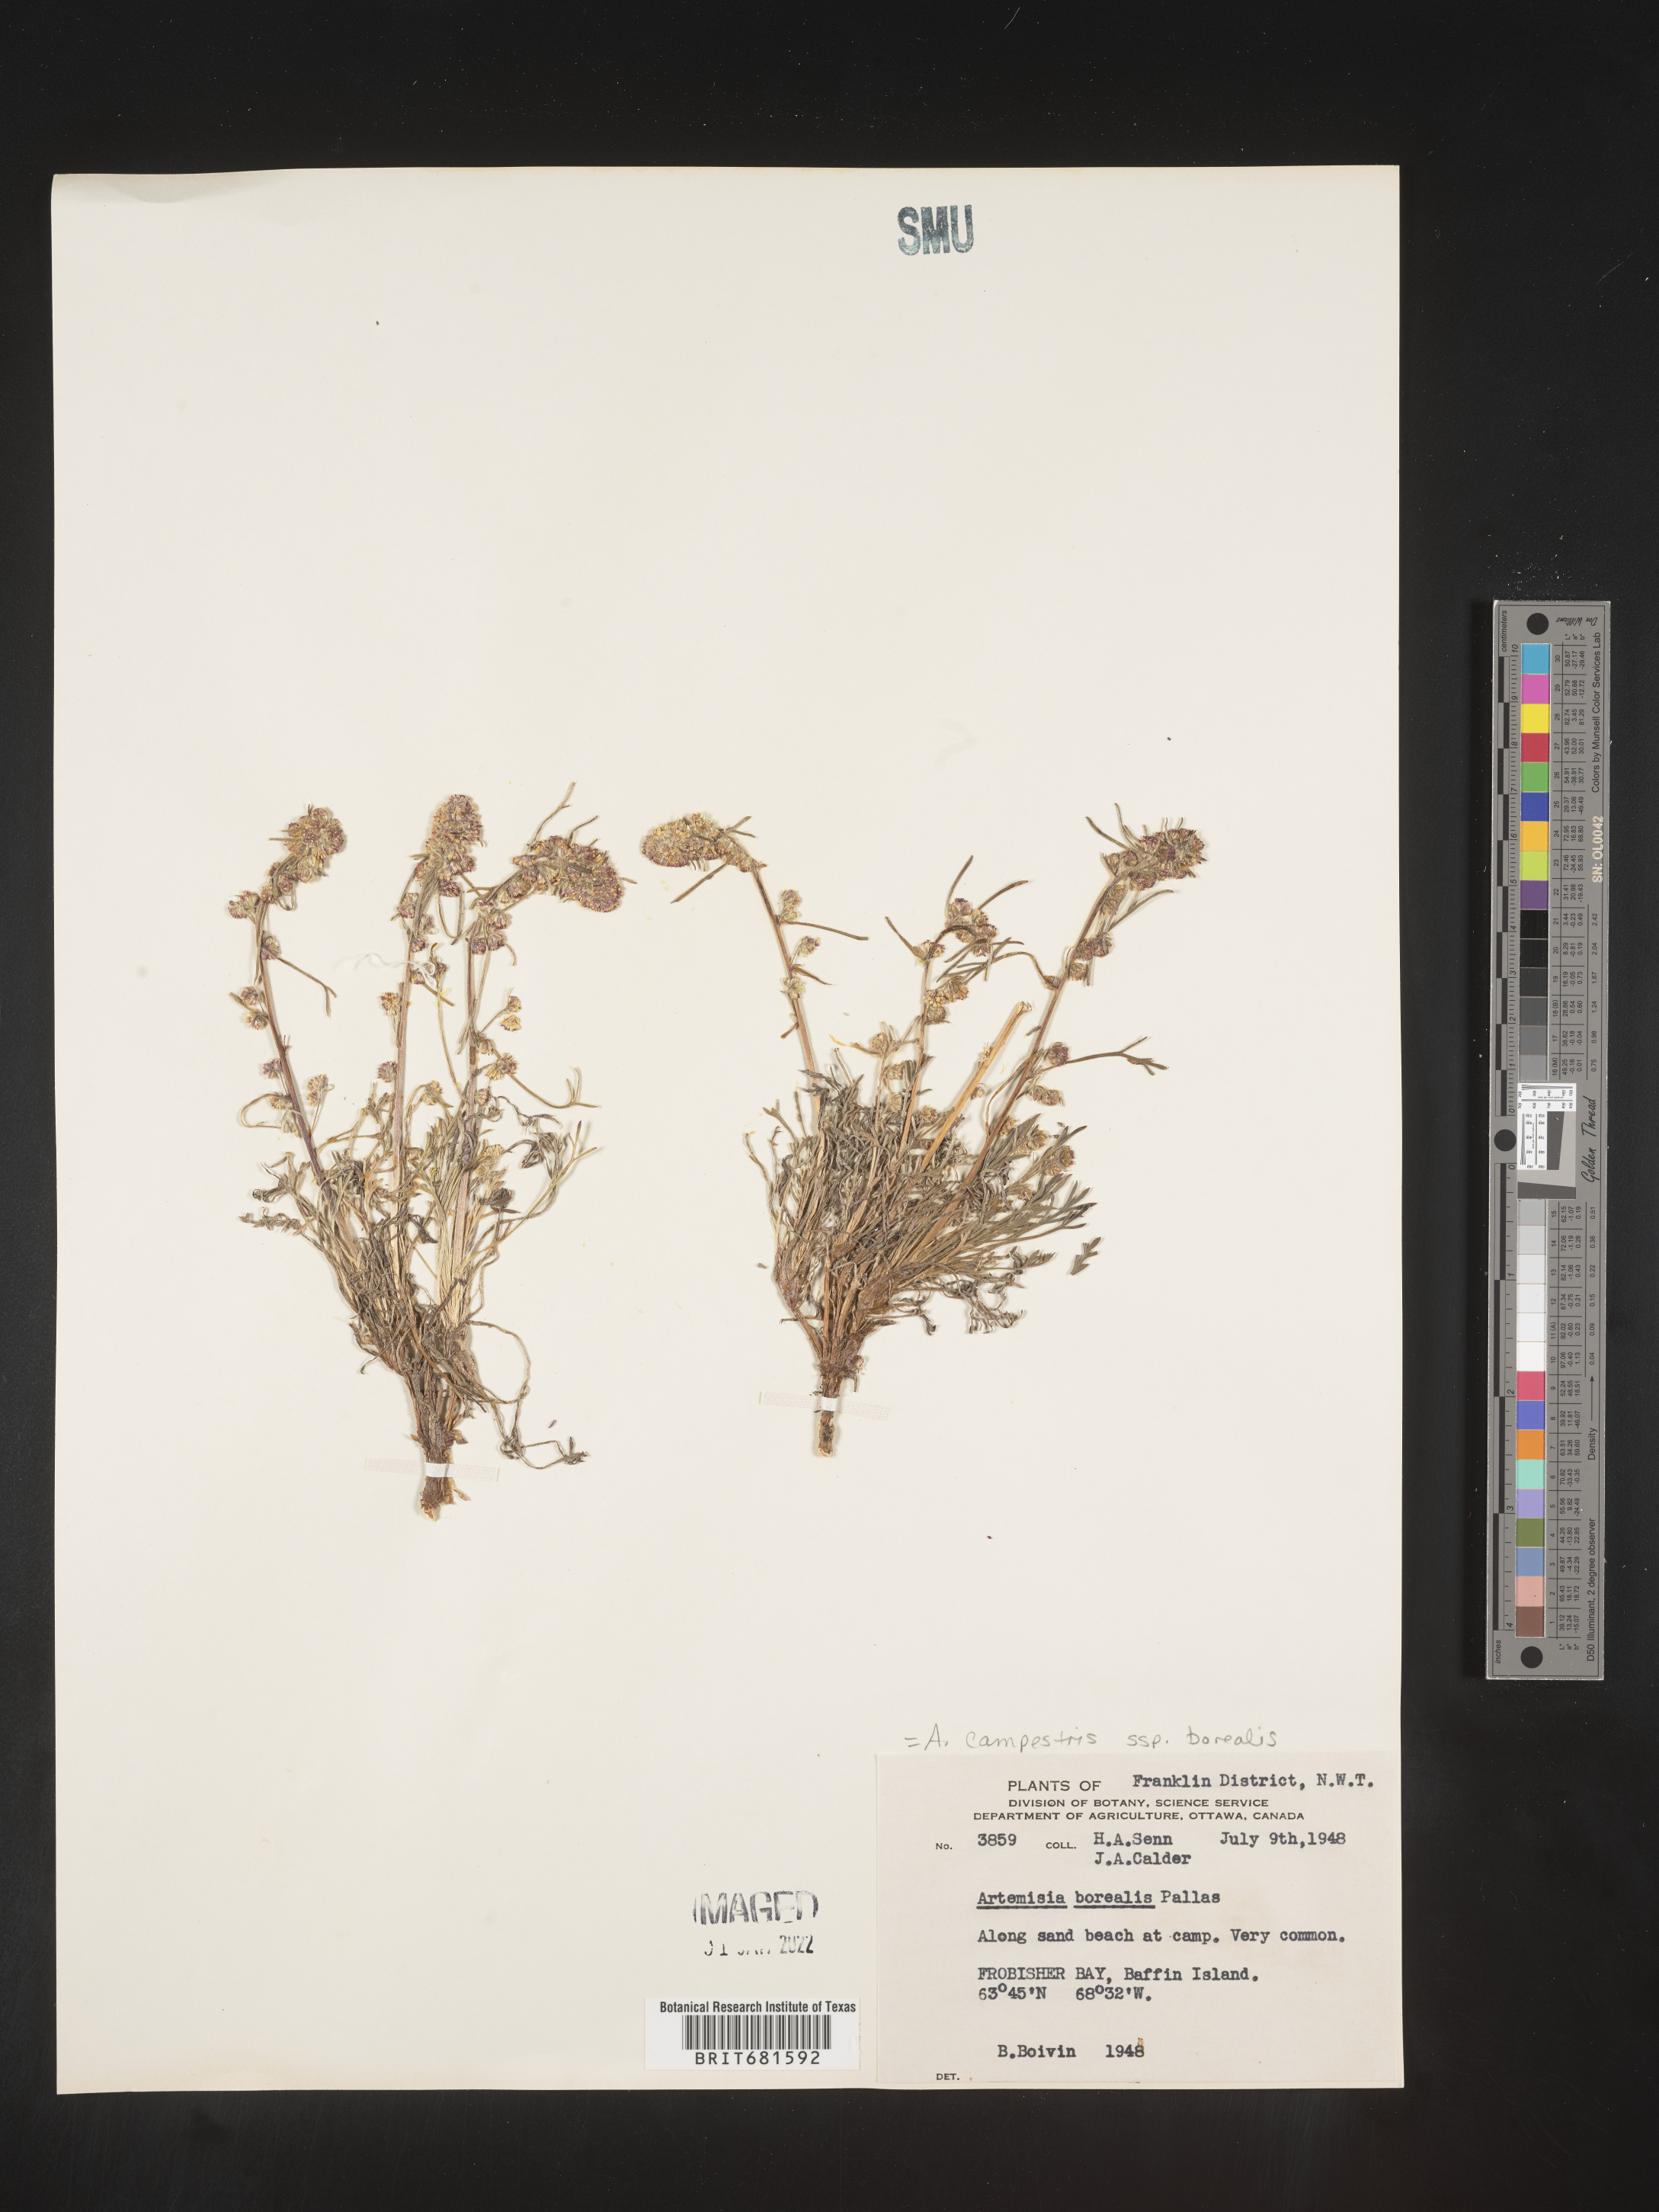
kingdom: Plantae
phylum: Tracheophyta
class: Magnoliopsida
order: Asterales
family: Asteraceae
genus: Artemisia
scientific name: Artemisia
